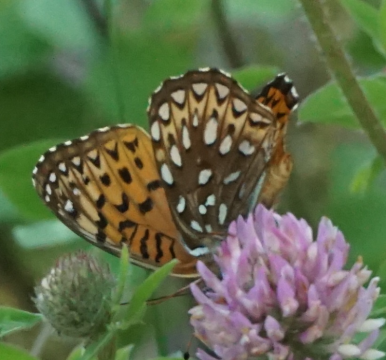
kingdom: Animalia
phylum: Arthropoda
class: Insecta
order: Lepidoptera
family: Nymphalidae
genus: Speyeria
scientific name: Speyeria atlantis
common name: Atlantis Fritillary
